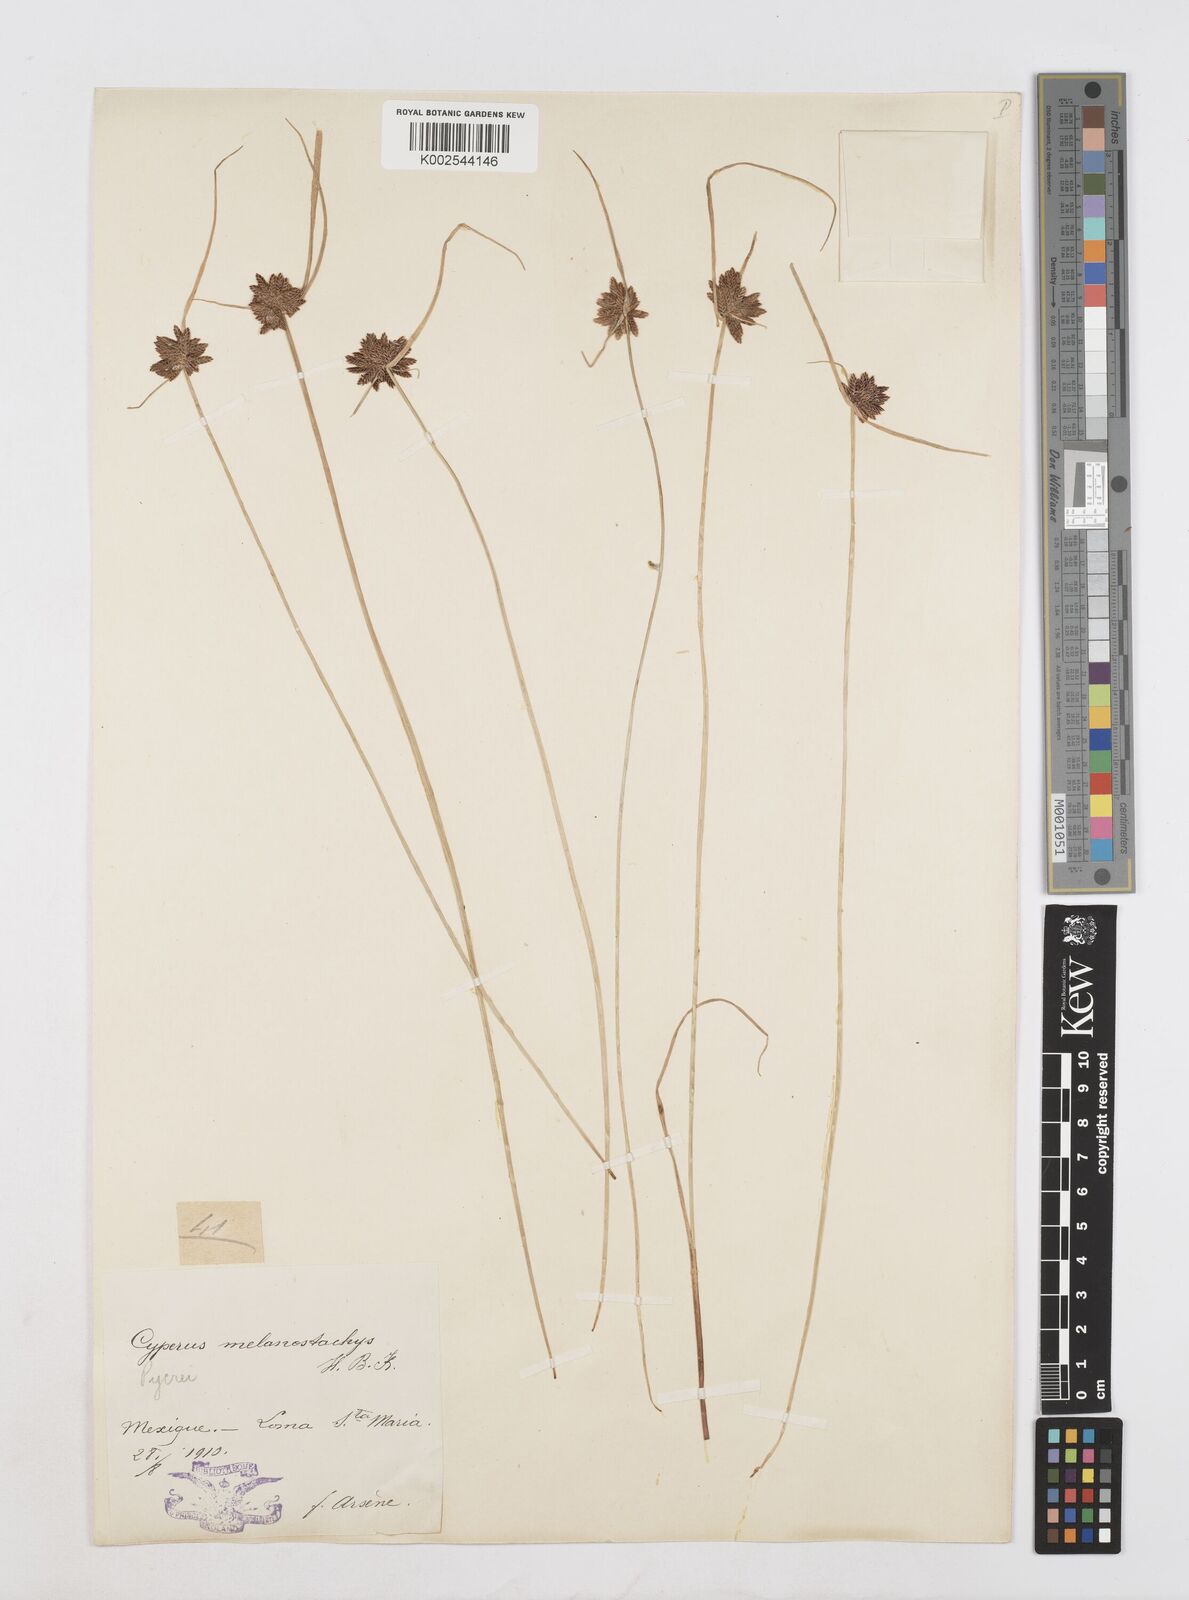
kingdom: Plantae
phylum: Tracheophyta
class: Liliopsida
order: Poales
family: Cyperaceae
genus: Cyperus
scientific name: Cyperus melanostachyus
